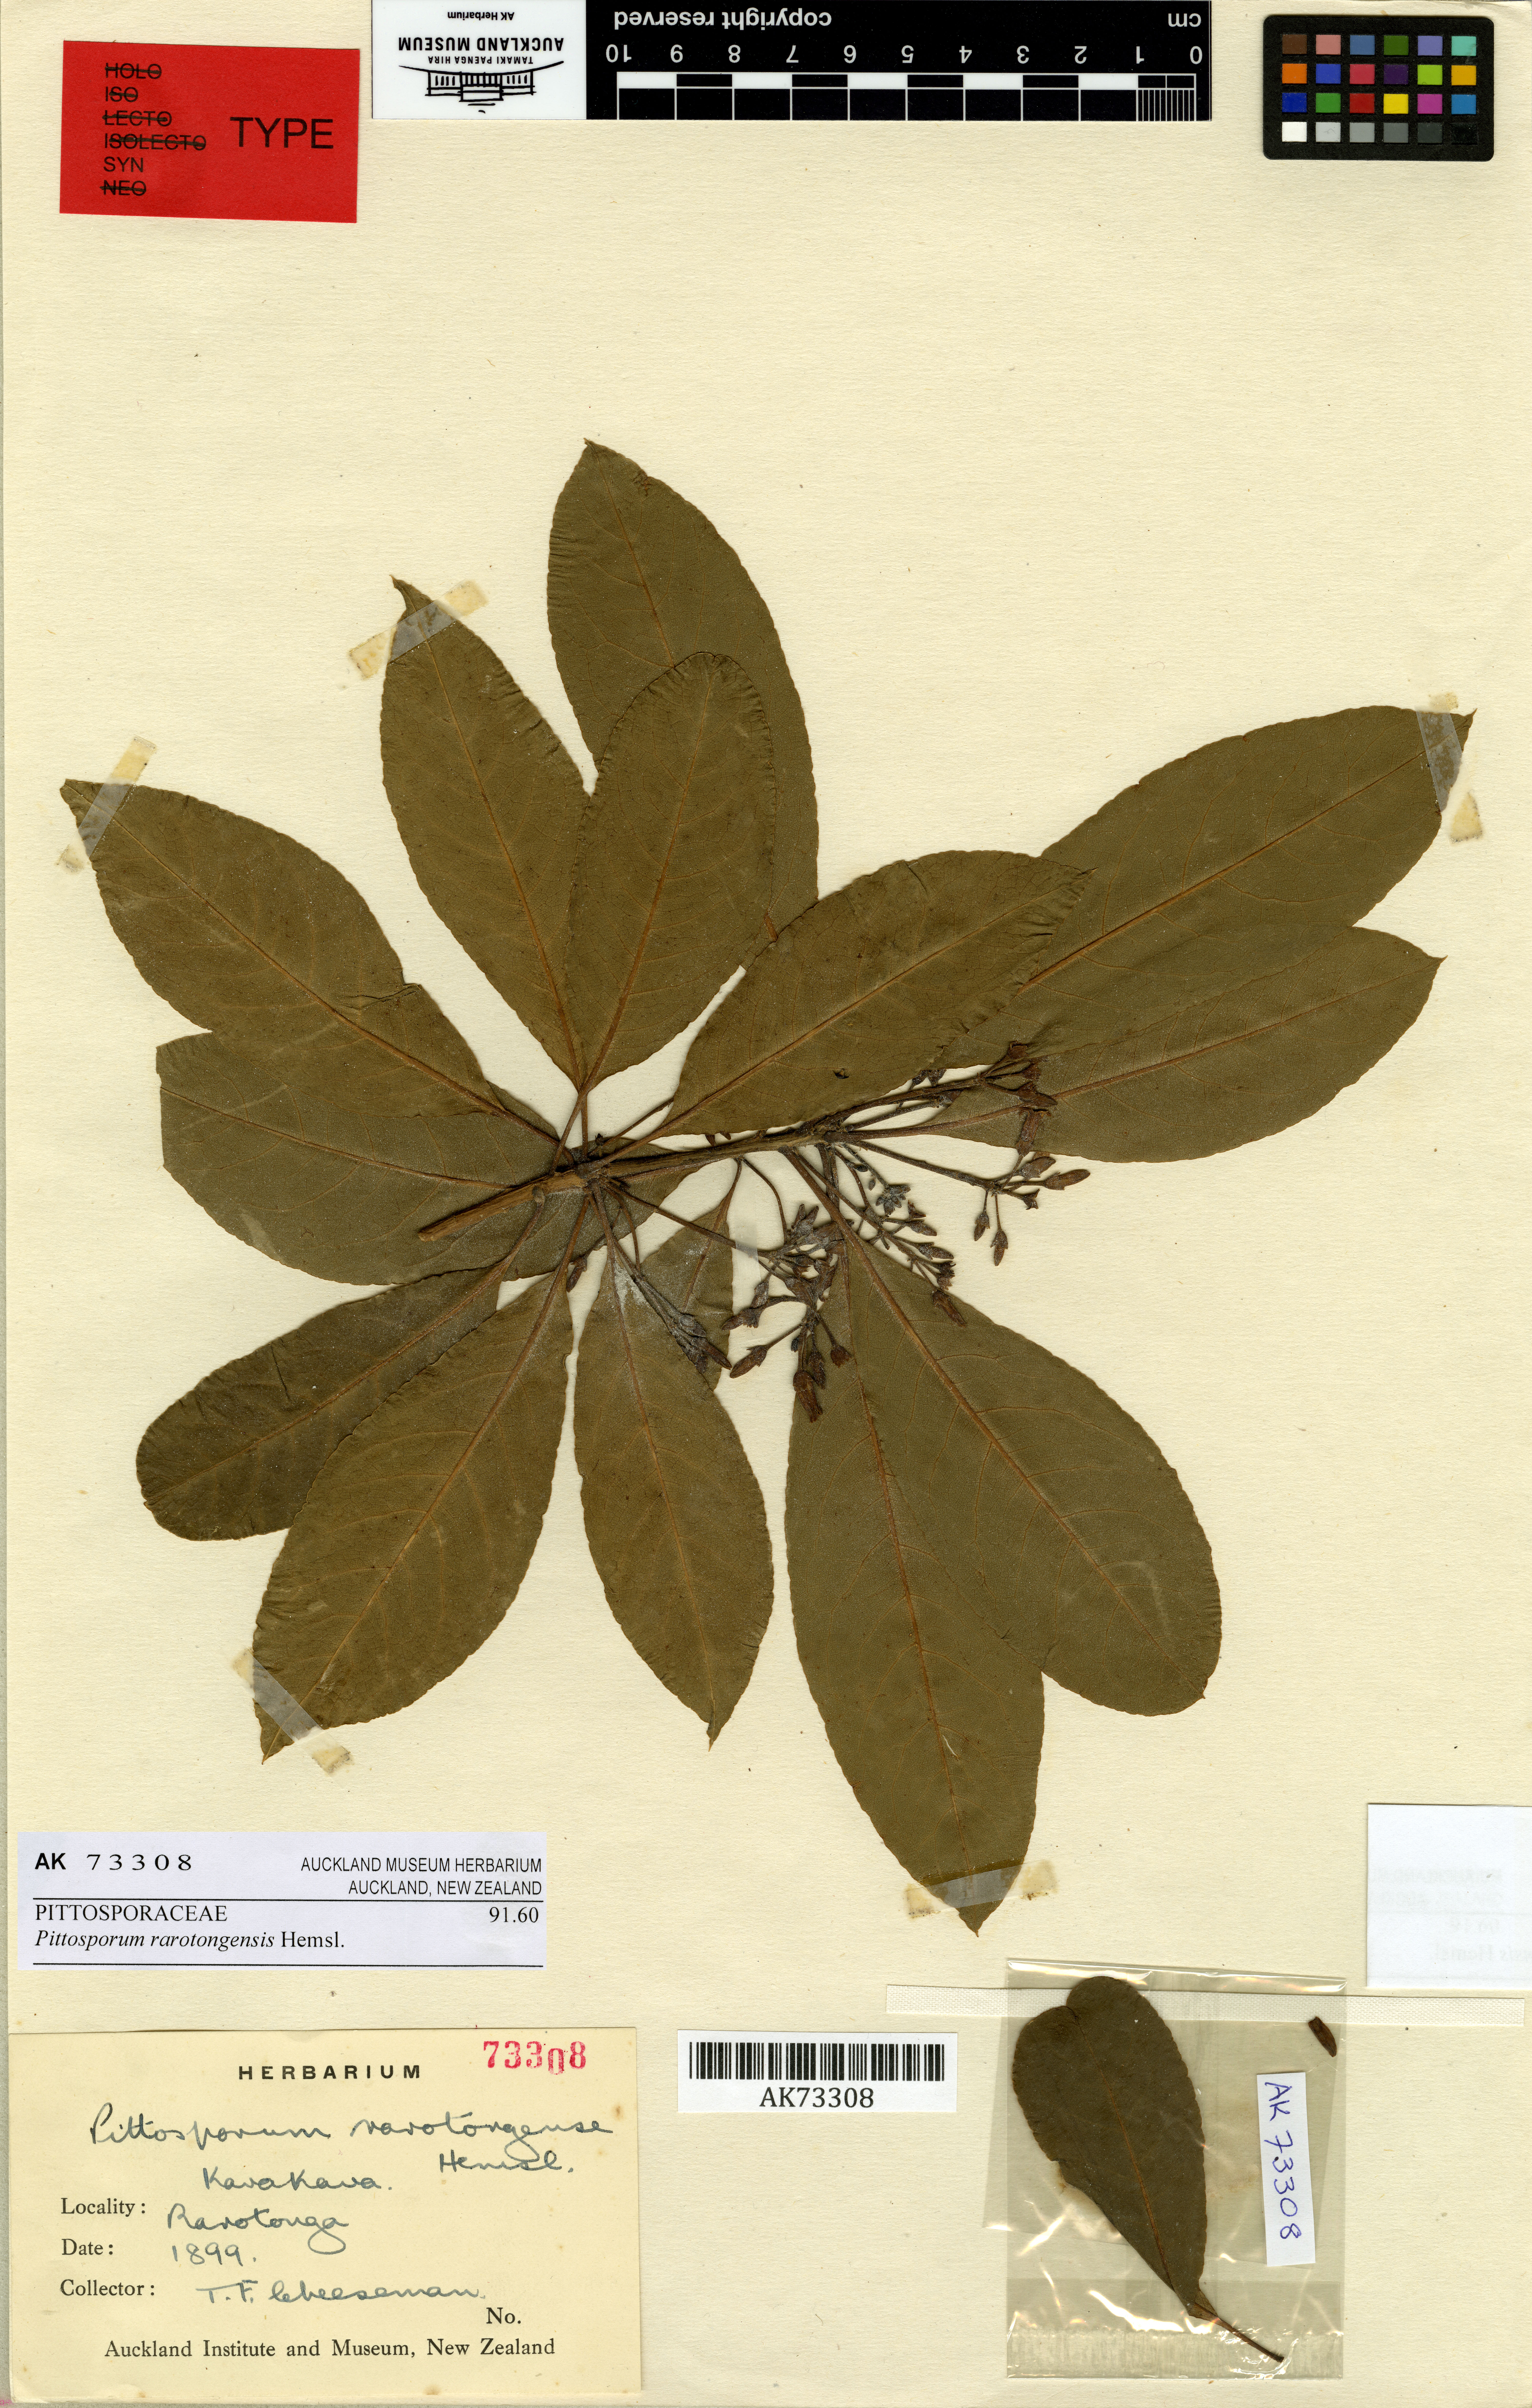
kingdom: Plantae
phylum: Tracheophyta
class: Magnoliopsida
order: Apiales
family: Pittosporaceae
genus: Pittosporum
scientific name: Pittosporum rarotongense
